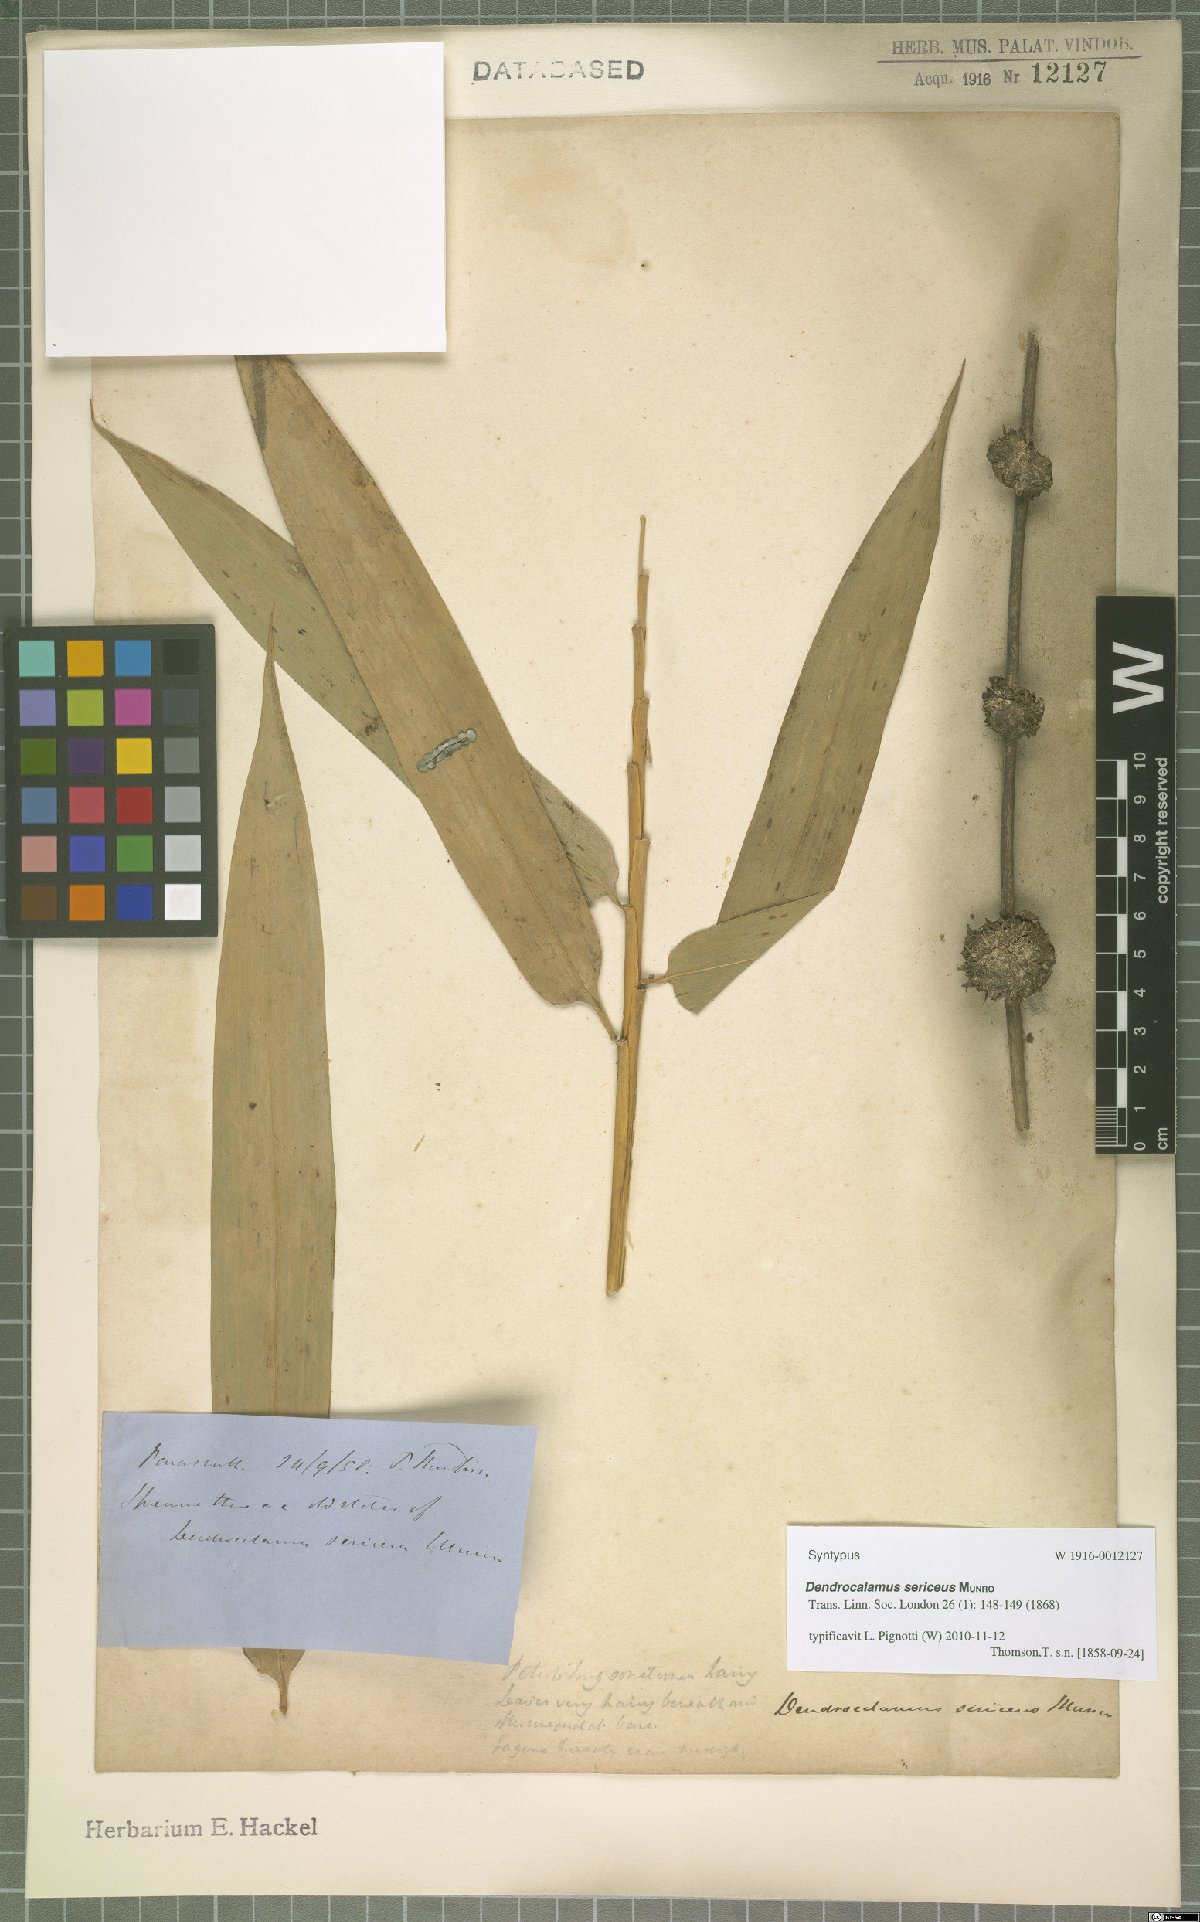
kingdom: Plantae
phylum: Tracheophyta
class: Liliopsida
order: Poales
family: Poaceae
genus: Dendrocalamus
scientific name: Dendrocalamus sericeus
